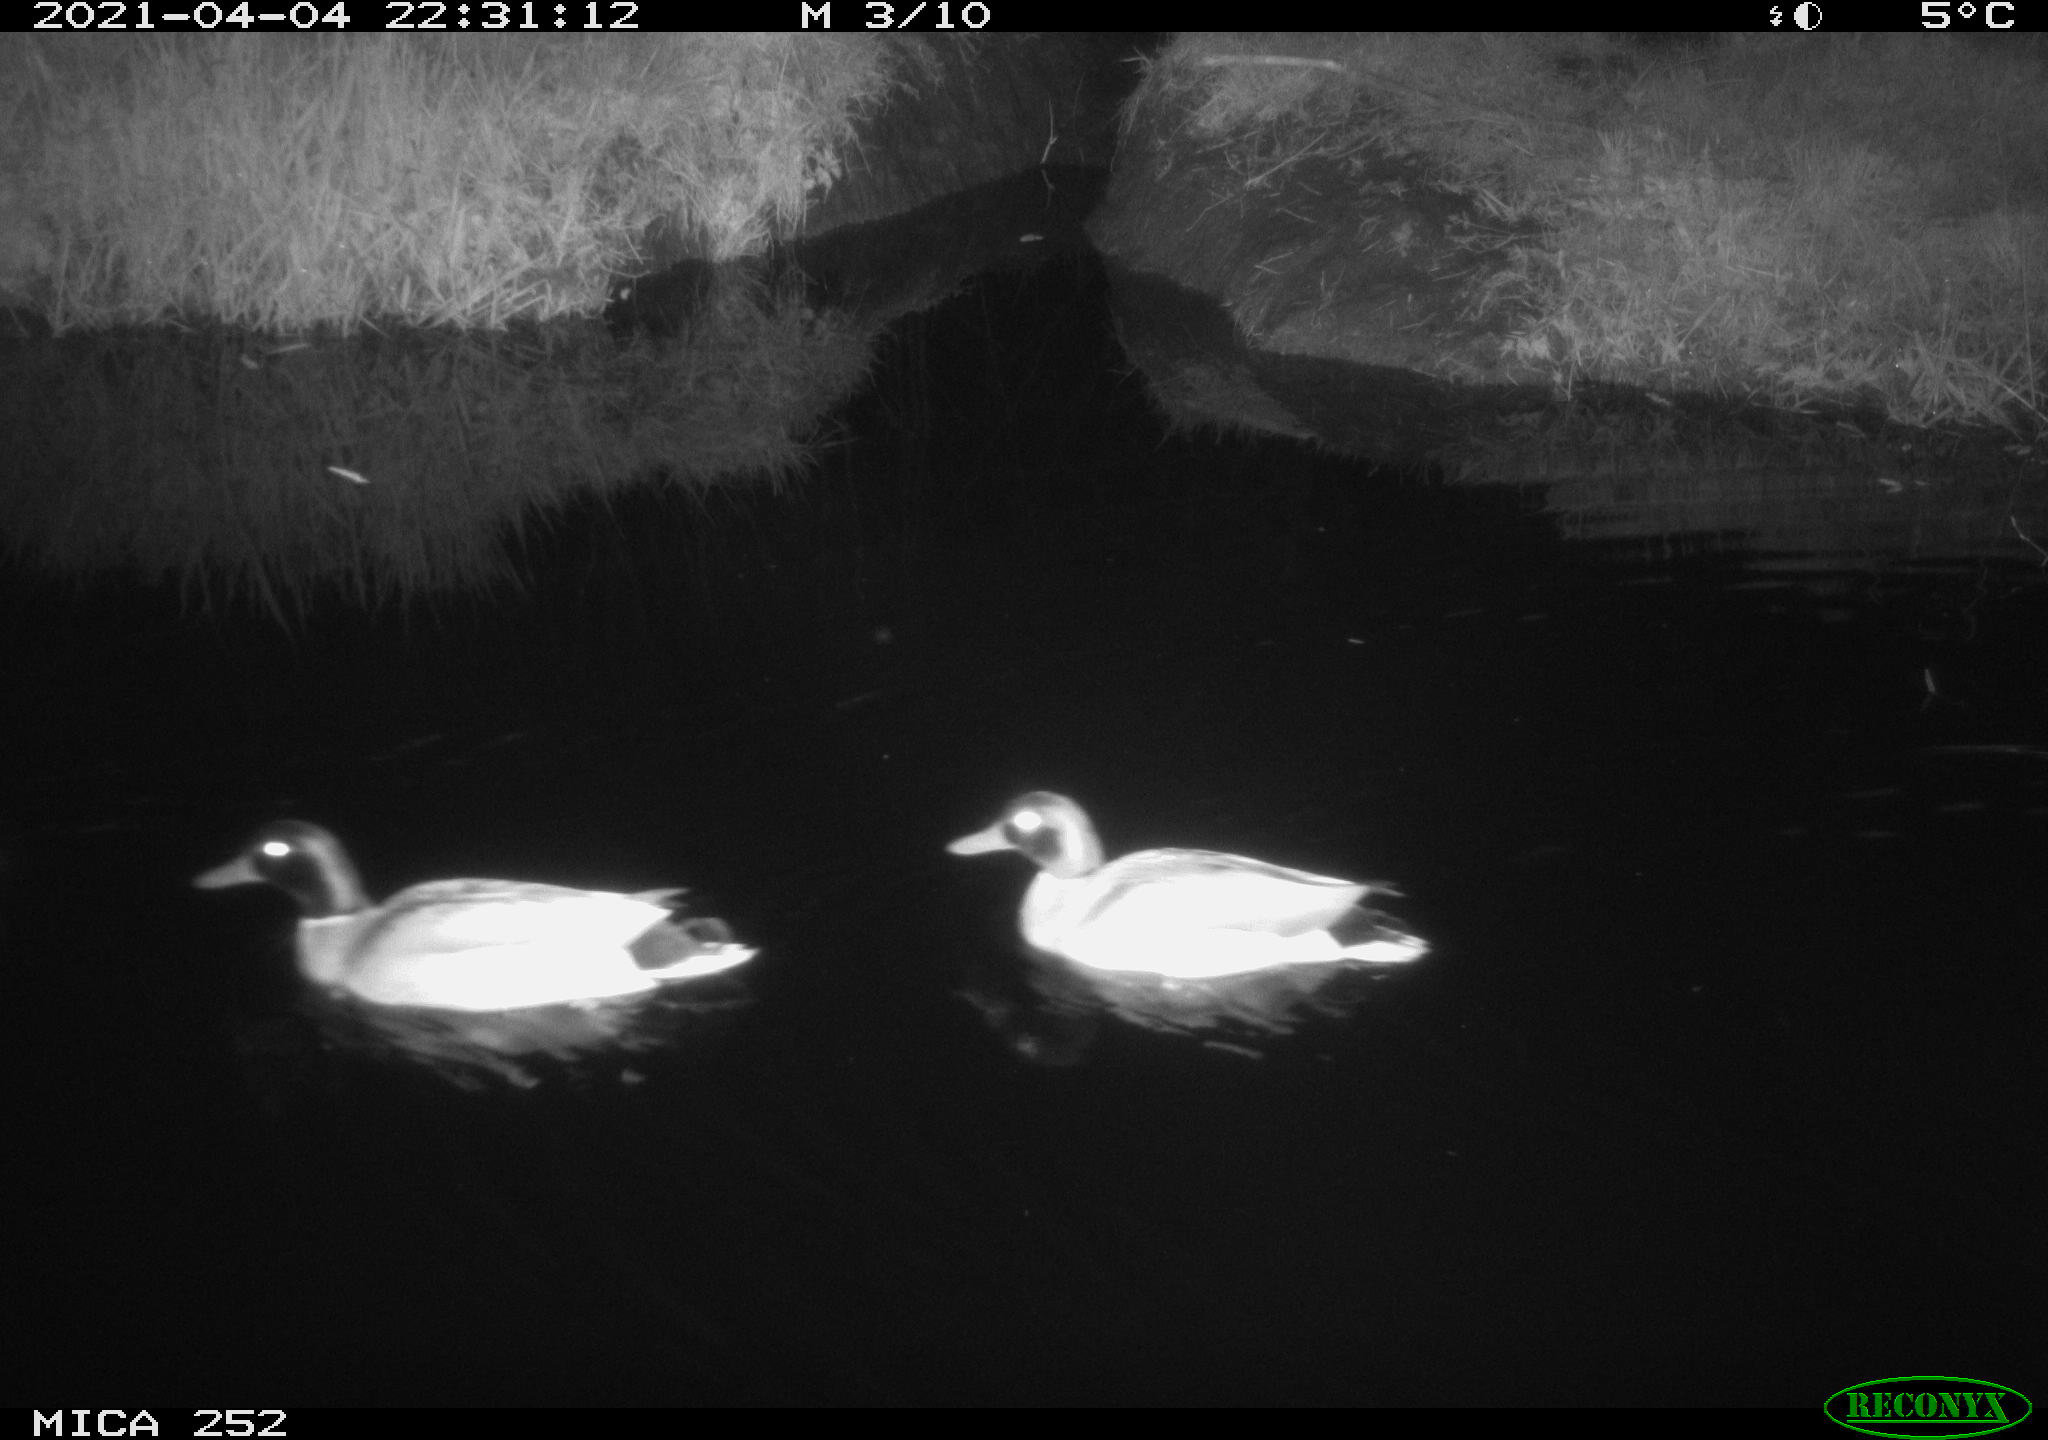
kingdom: Animalia
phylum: Chordata
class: Aves
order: Anseriformes
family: Anatidae
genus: Anas
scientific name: Anas platyrhynchos
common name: Mallard
